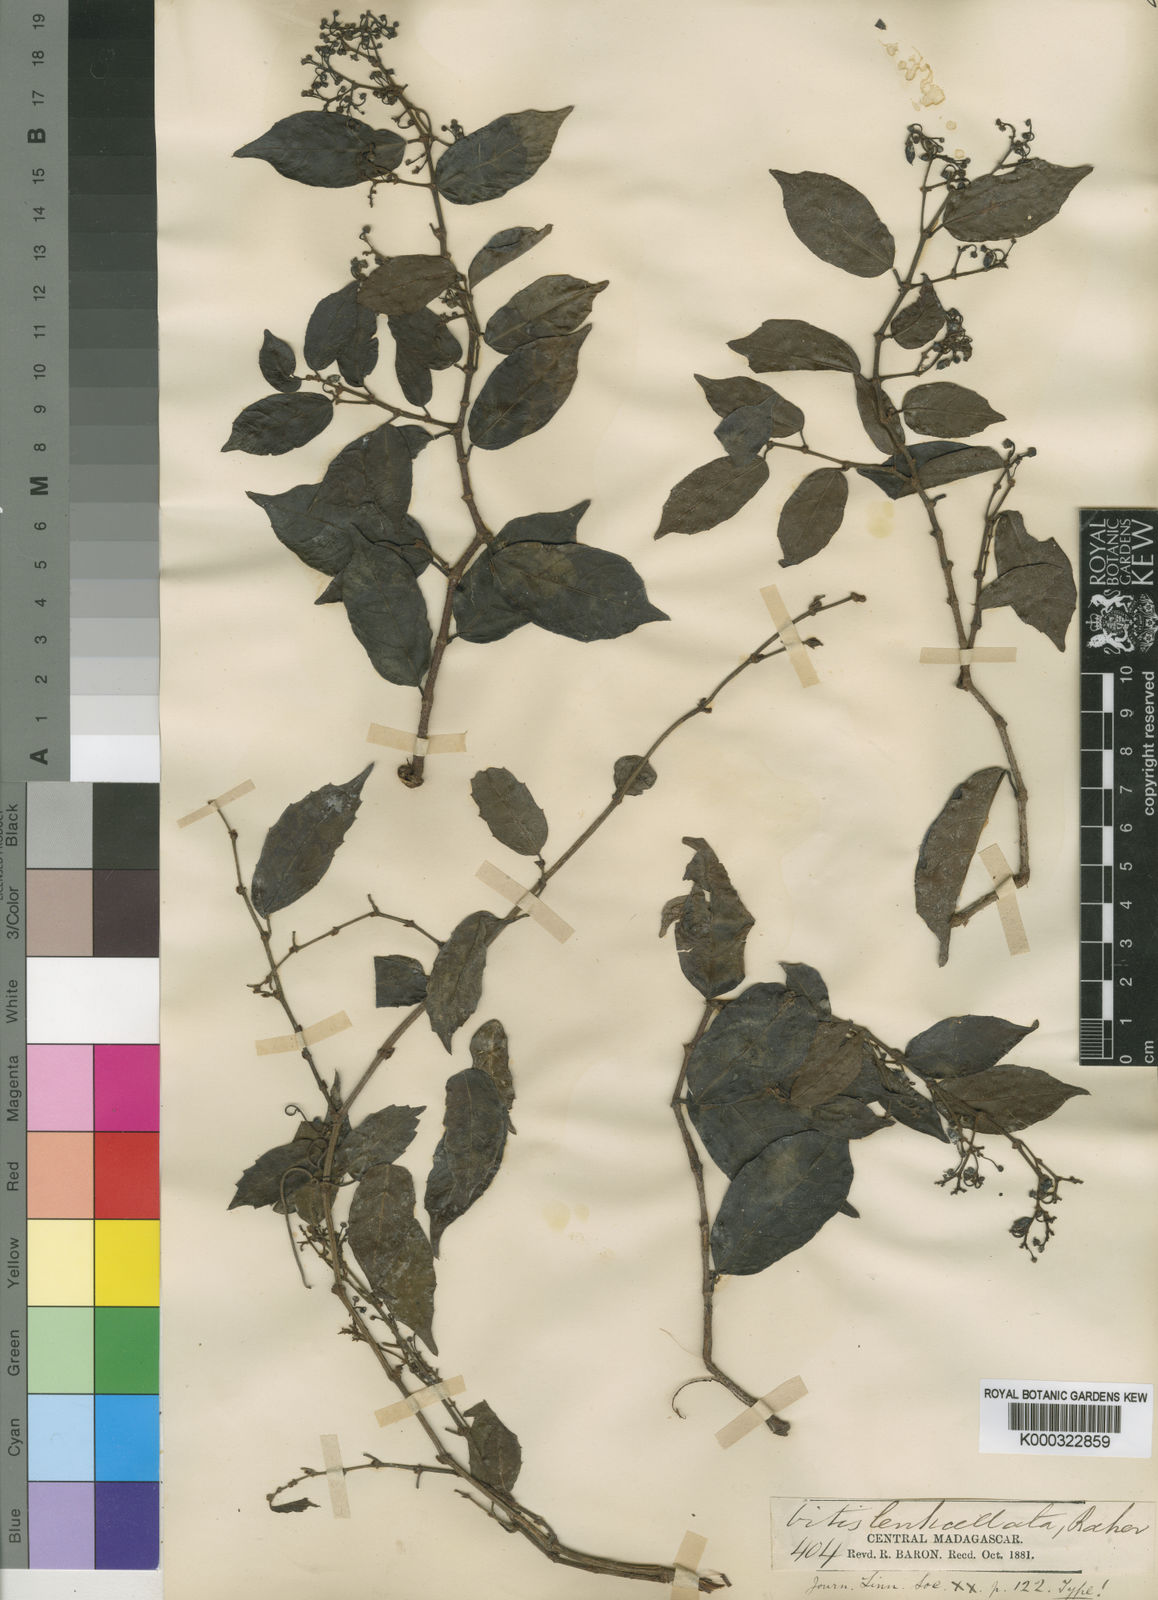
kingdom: Plantae
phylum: Tracheophyta
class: Magnoliopsida
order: Vitales
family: Vitaceae
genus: Cissus
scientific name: Cissus floribunda
